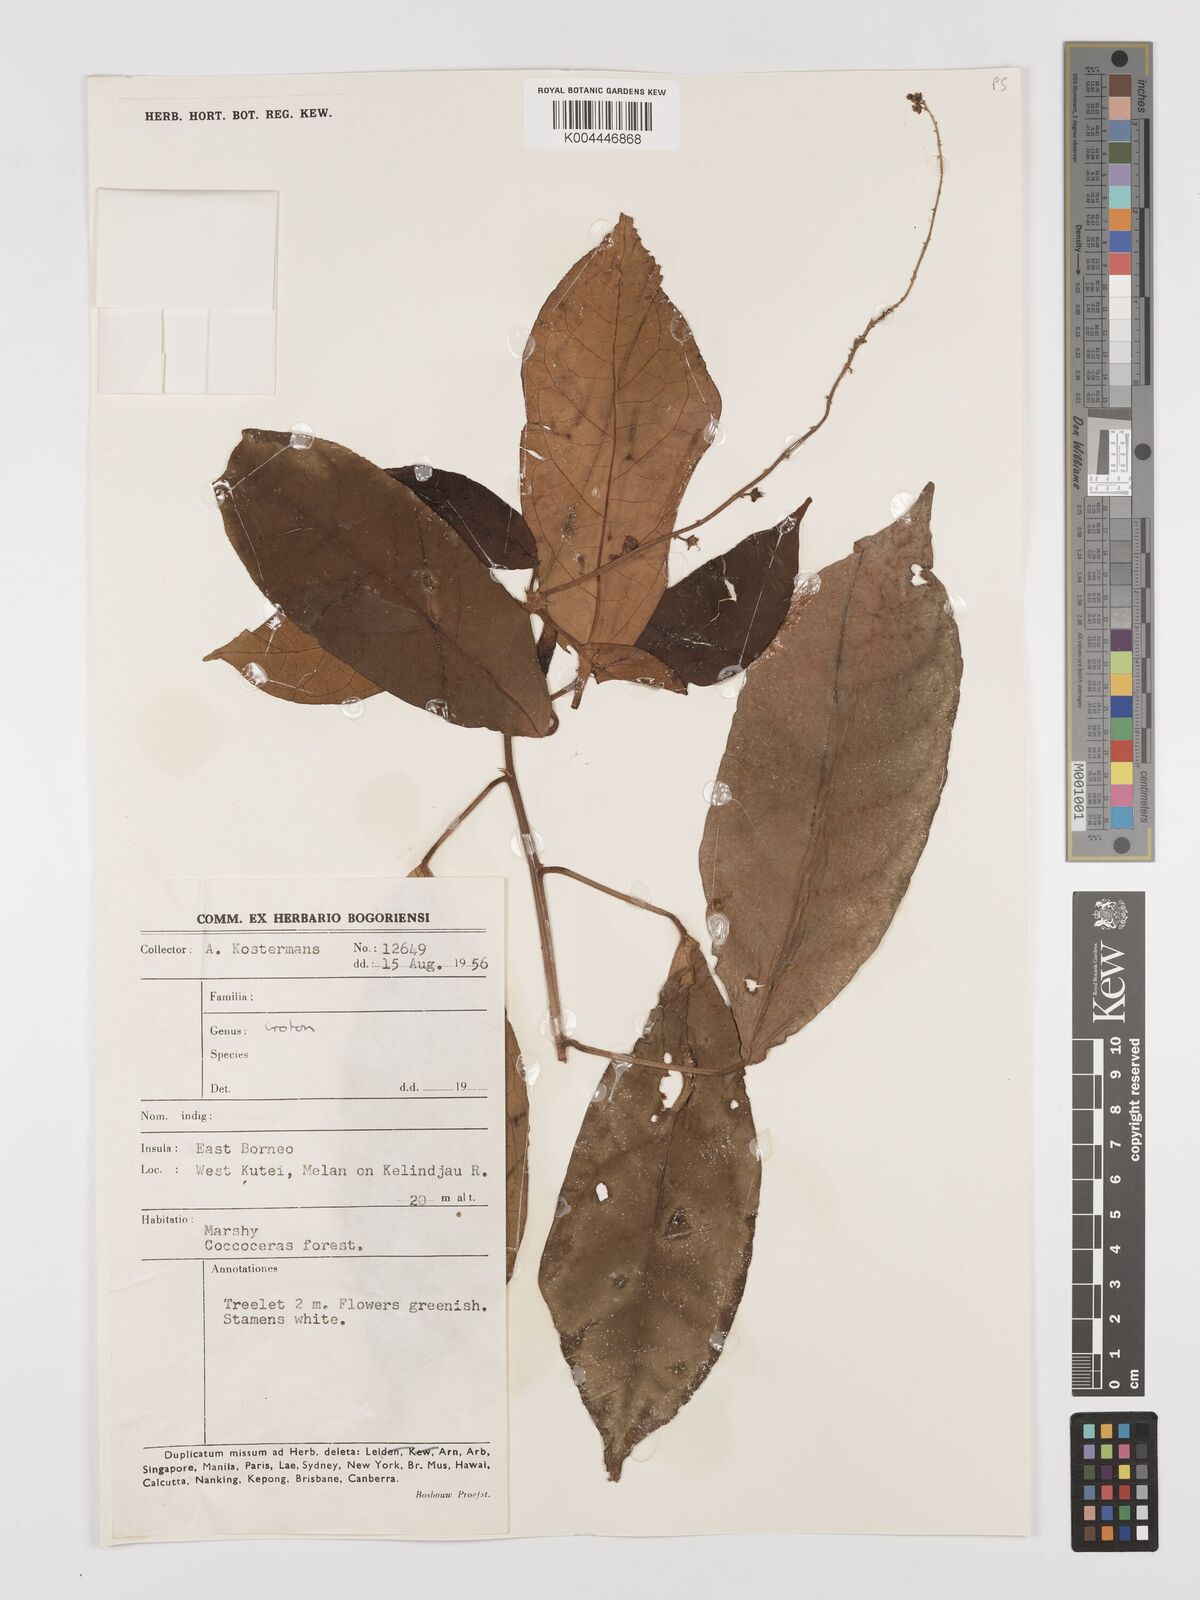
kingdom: Plantae
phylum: Tracheophyta
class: Magnoliopsida
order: Malpighiales
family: Euphorbiaceae
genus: Croton
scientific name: Croton oblongus
